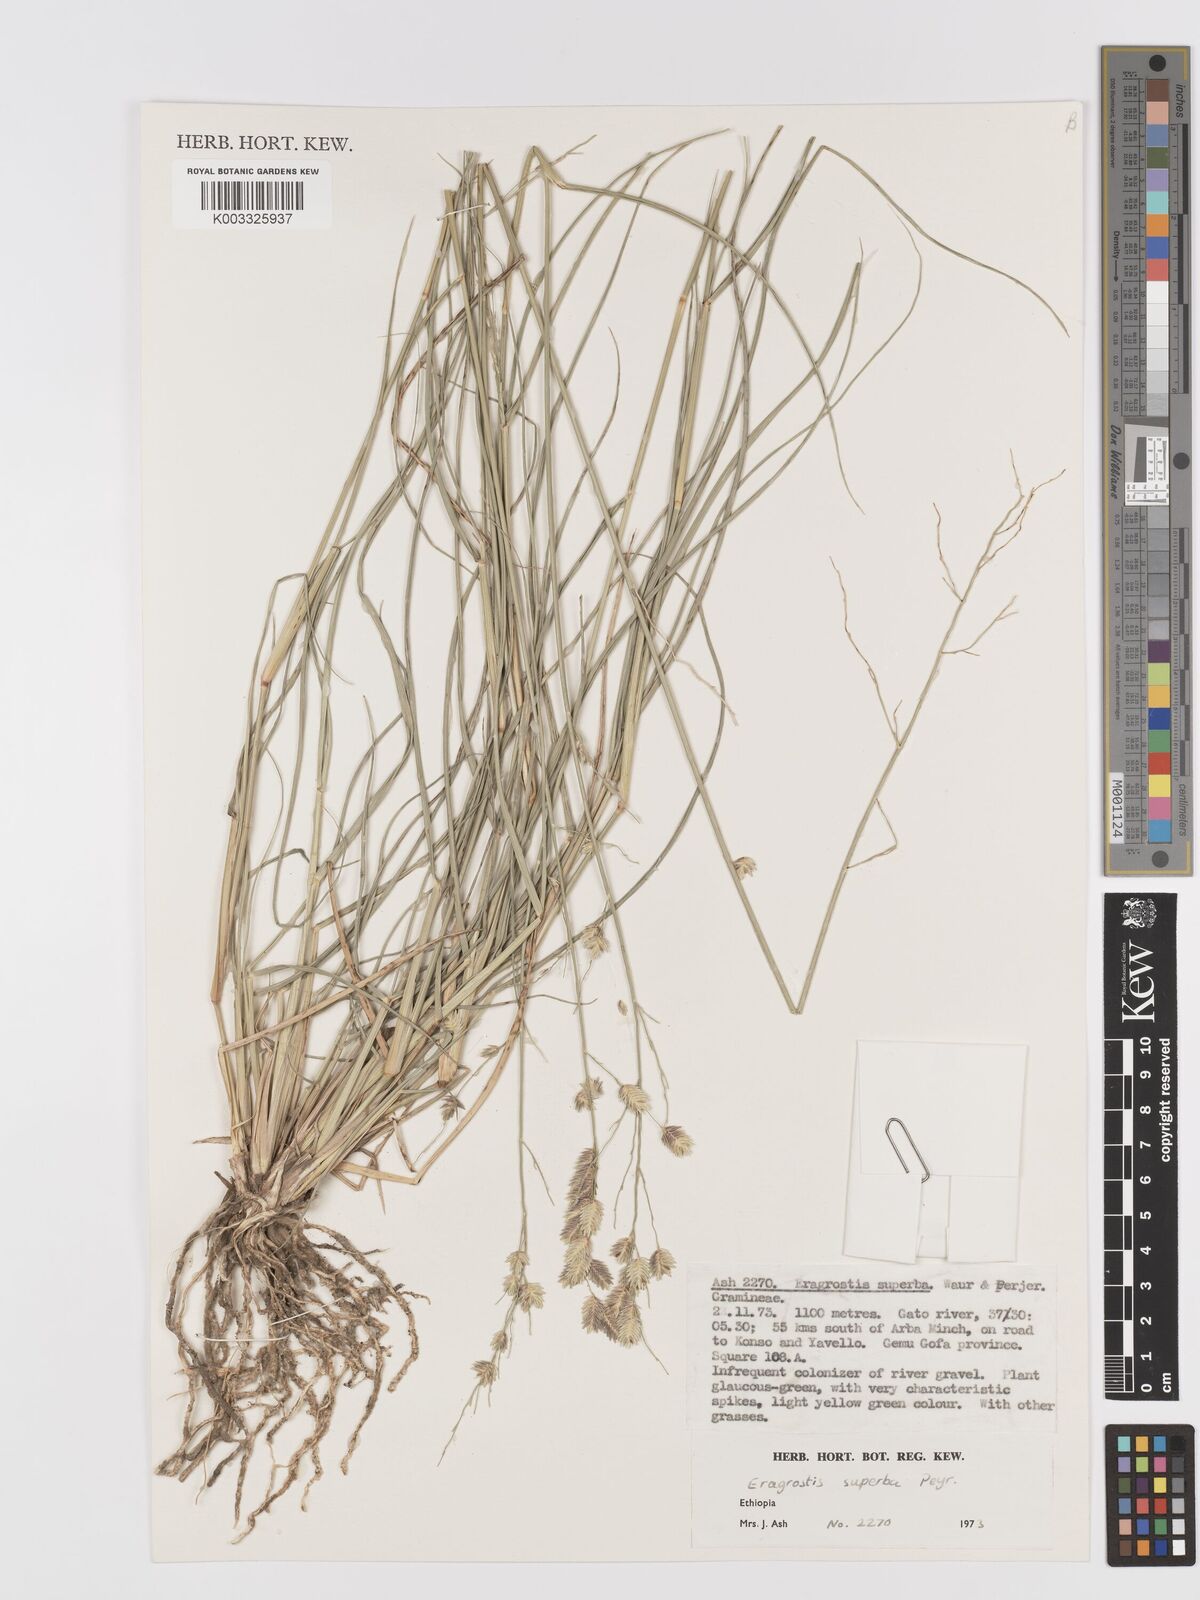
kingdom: Plantae
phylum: Tracheophyta
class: Liliopsida
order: Poales
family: Poaceae
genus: Eragrostis
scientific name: Eragrostis superba
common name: Wilman lovegrass
